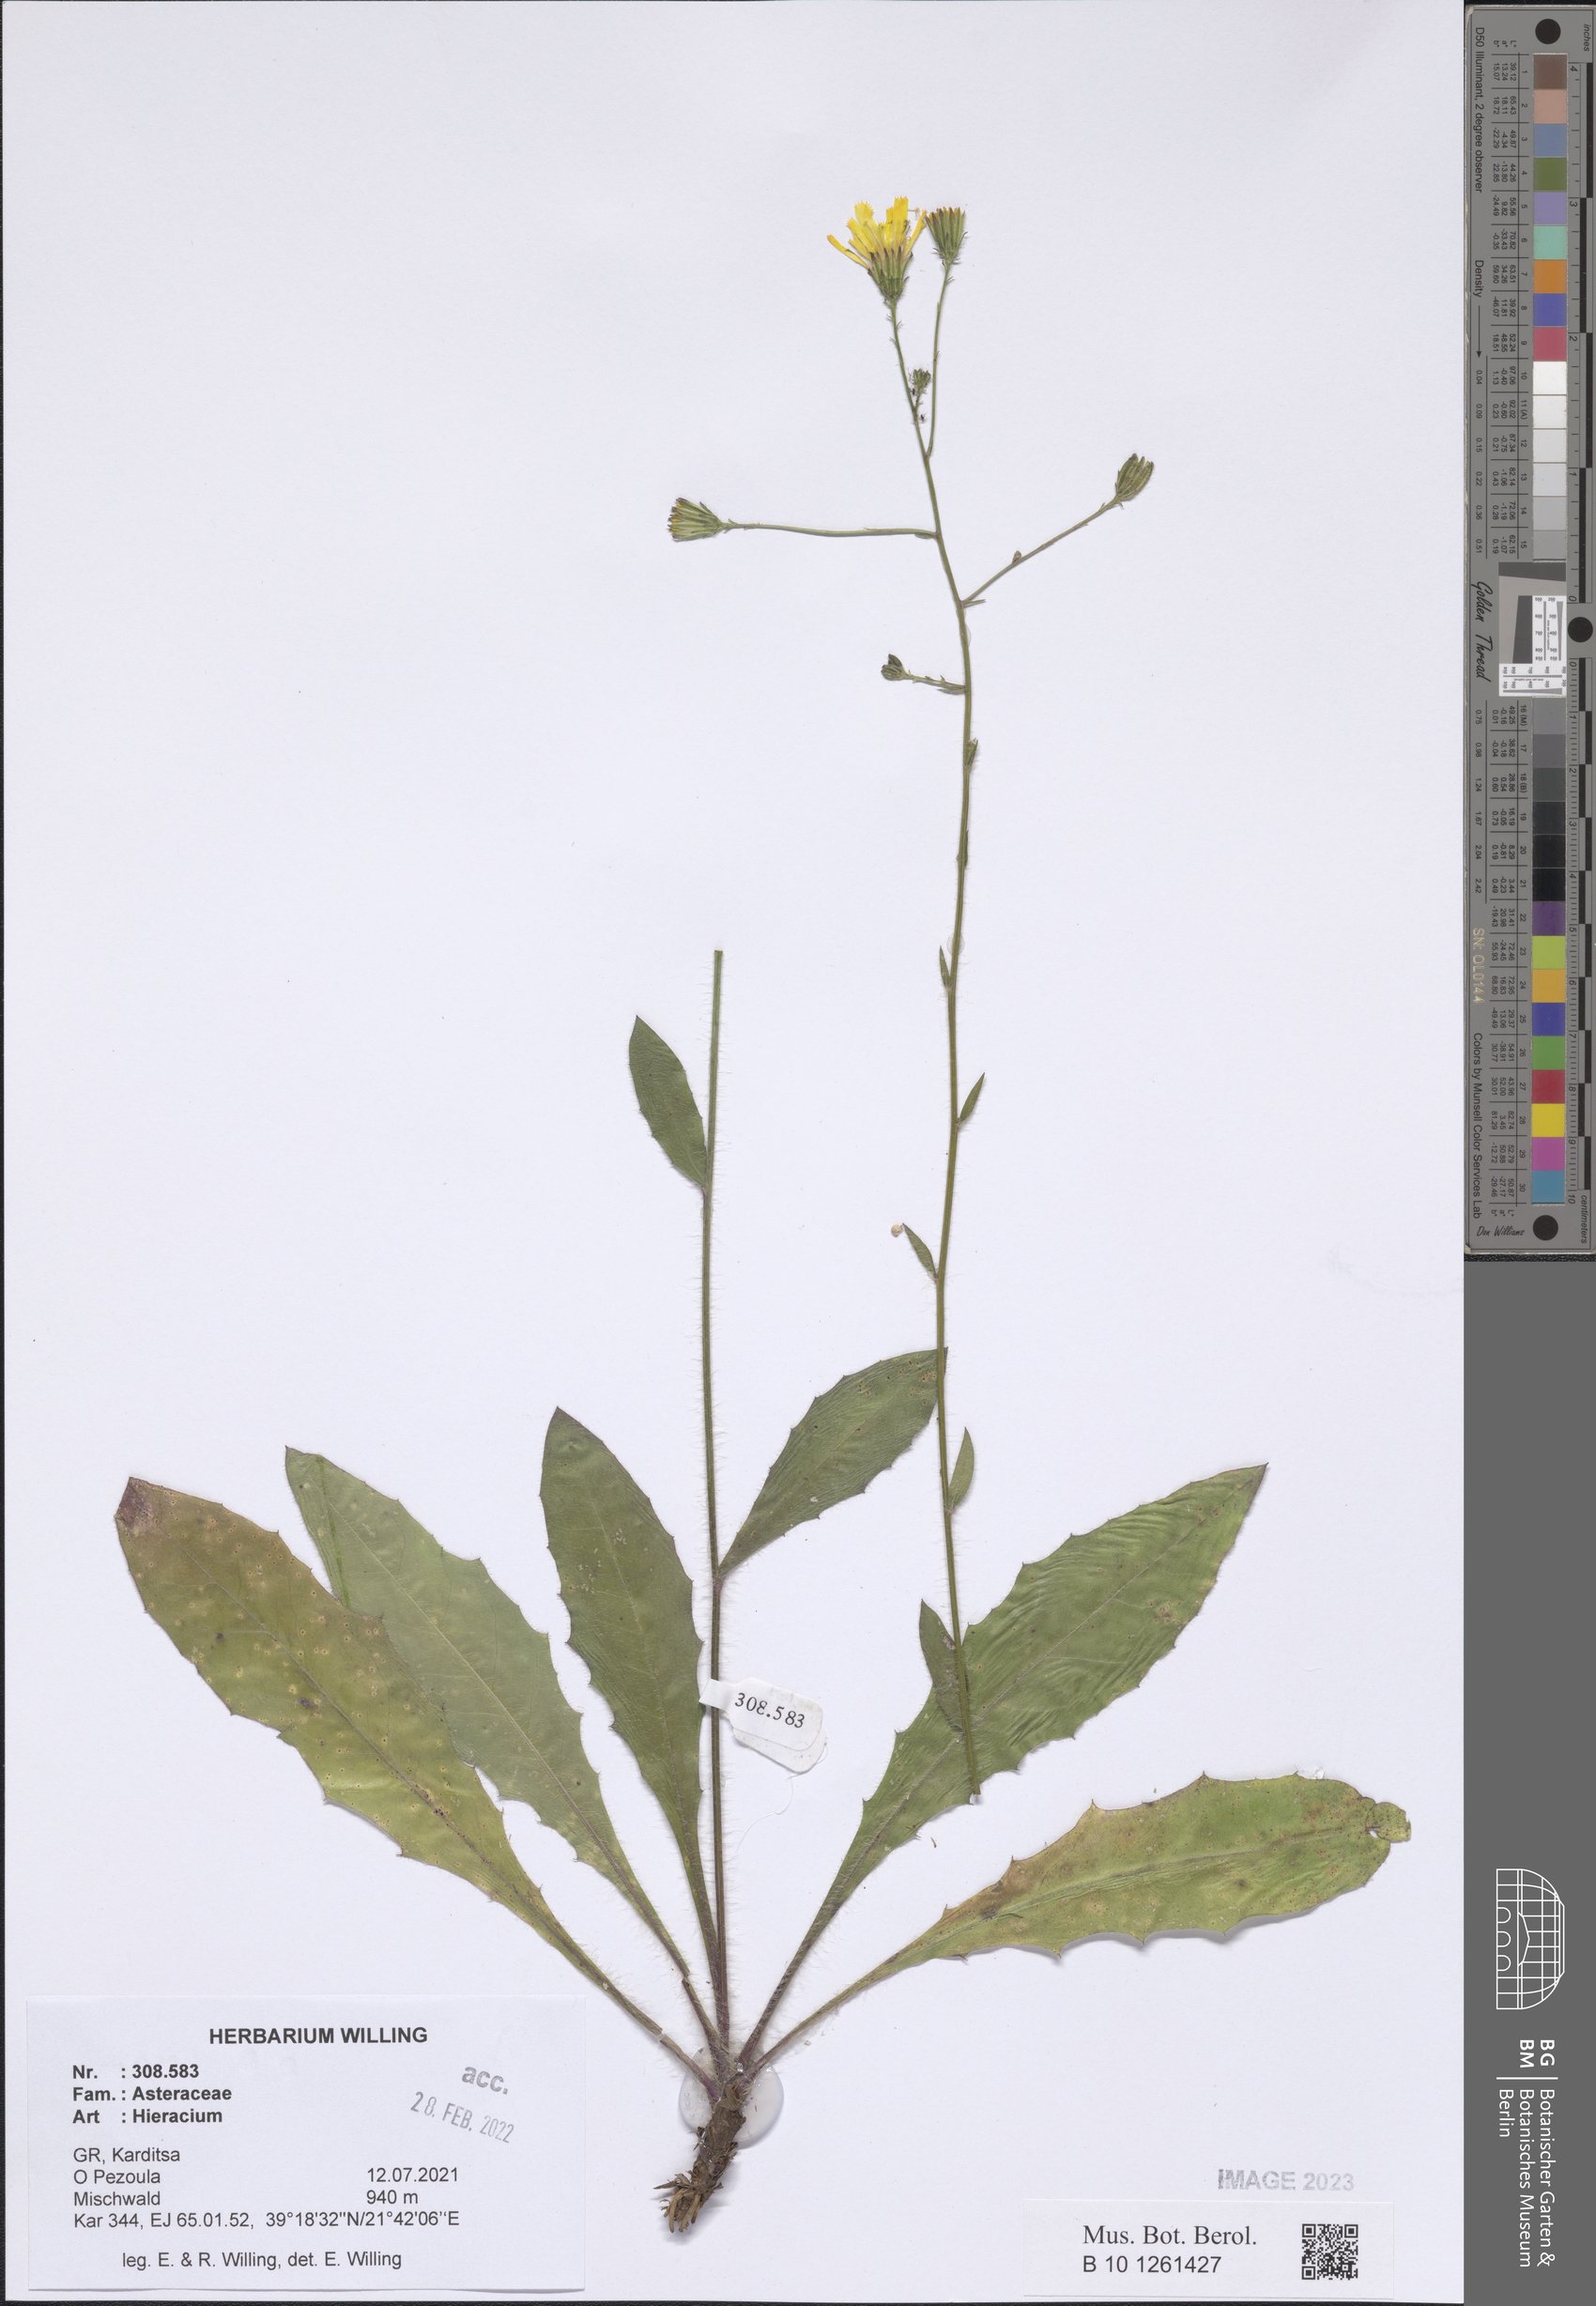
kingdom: Plantae
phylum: Tracheophyta
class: Magnoliopsida
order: Asterales
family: Asteraceae
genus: Hieracium
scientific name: Hieracium
